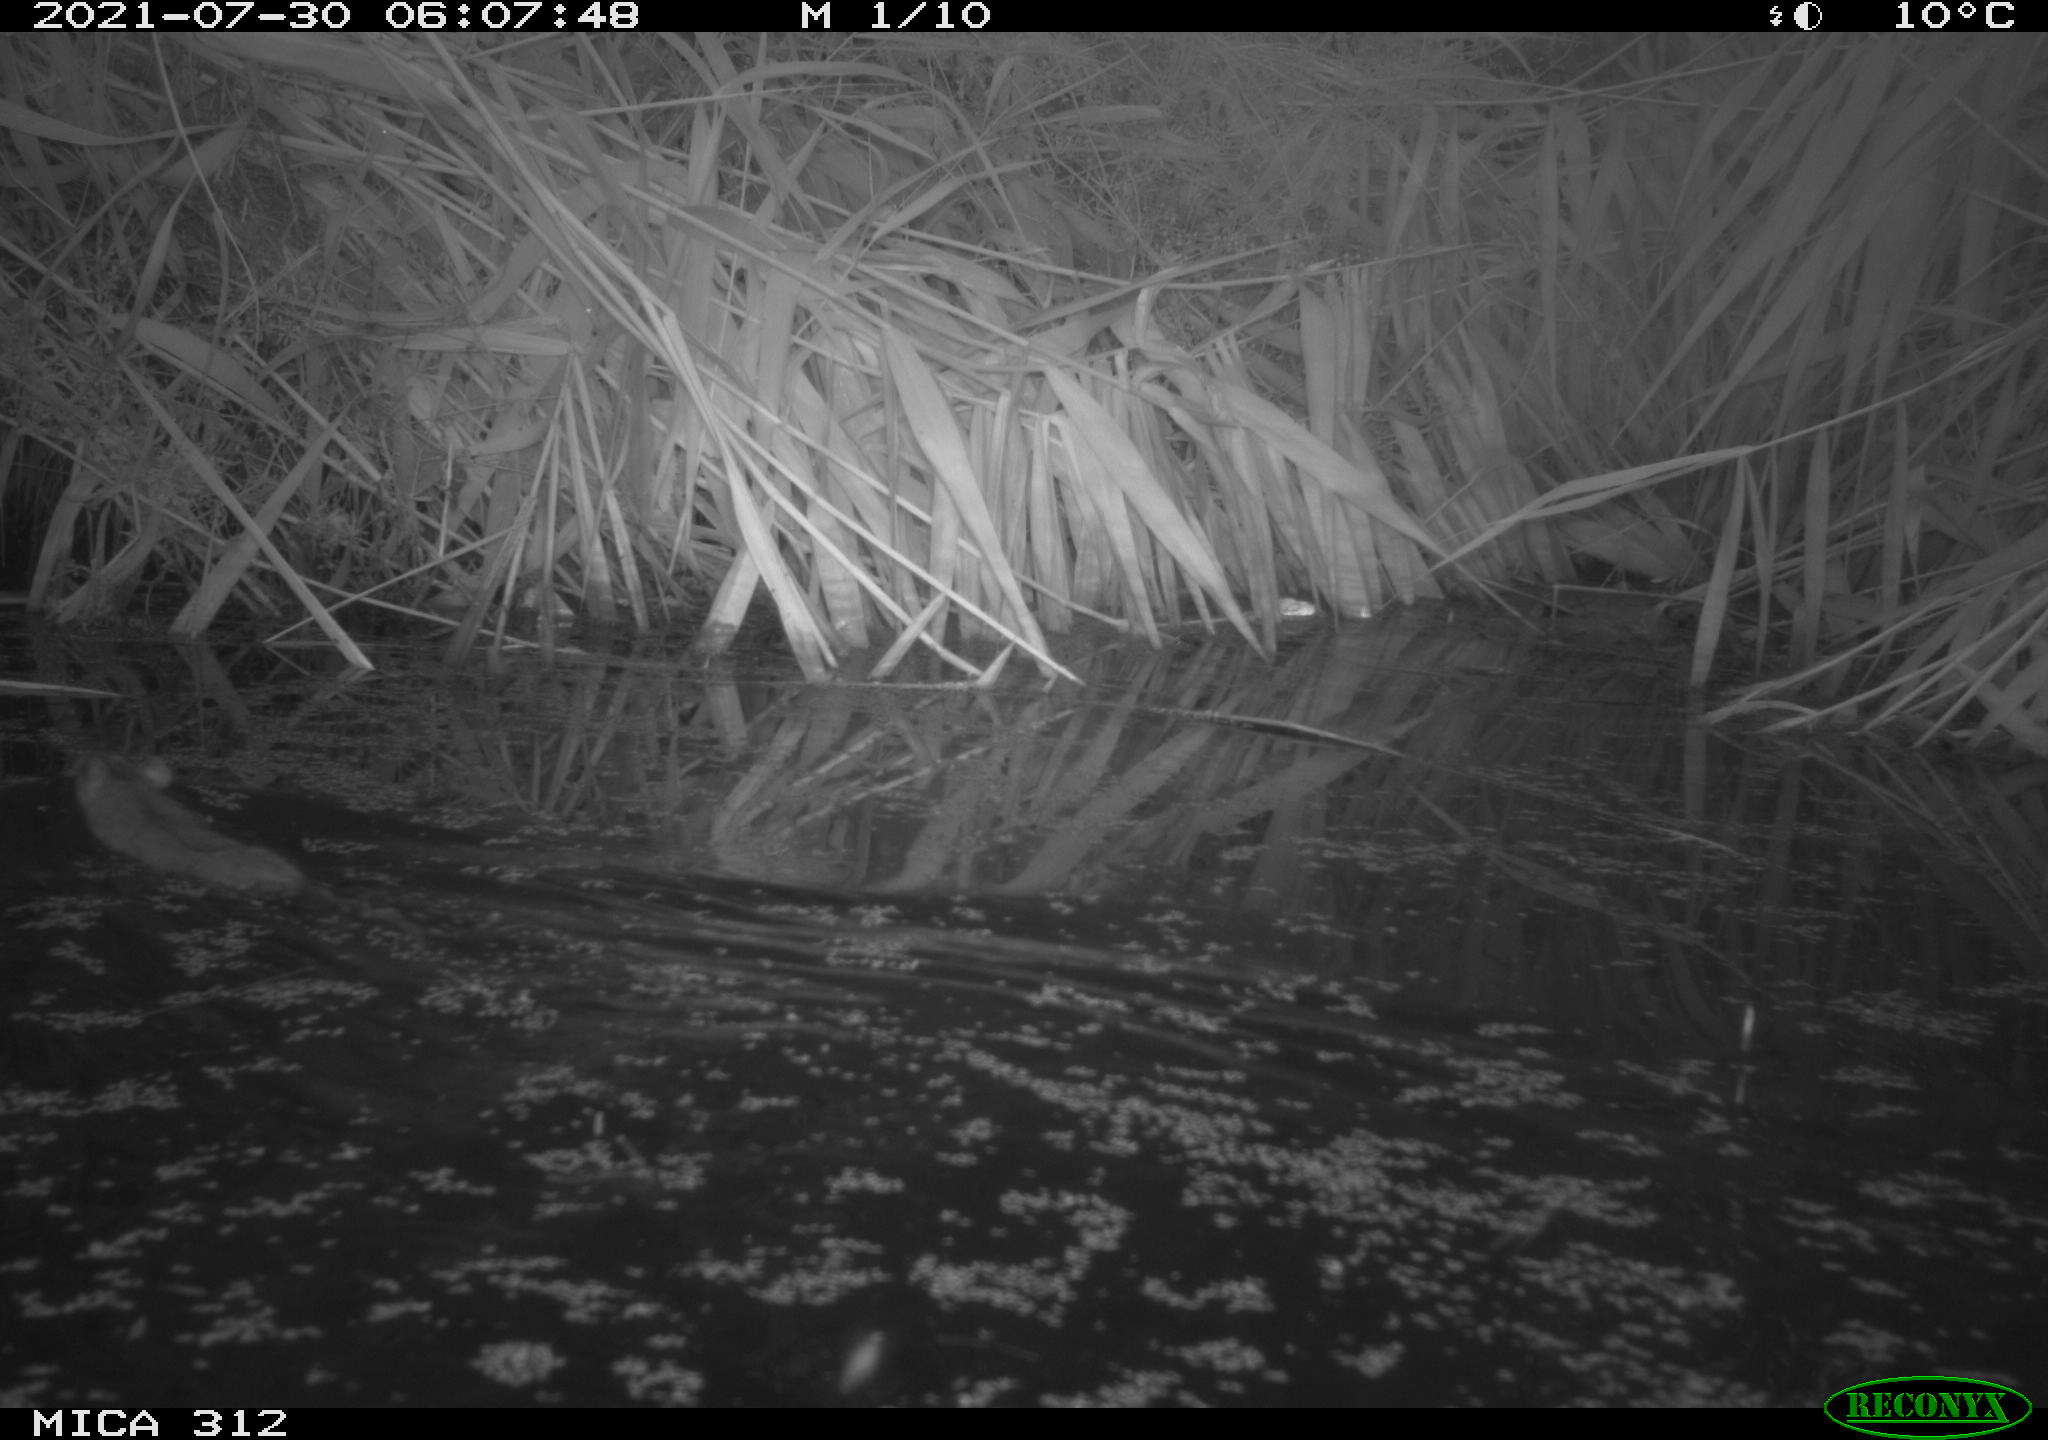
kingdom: Animalia
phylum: Chordata
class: Mammalia
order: Rodentia
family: Muridae
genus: Rattus
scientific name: Rattus norvegicus
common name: Brown rat
